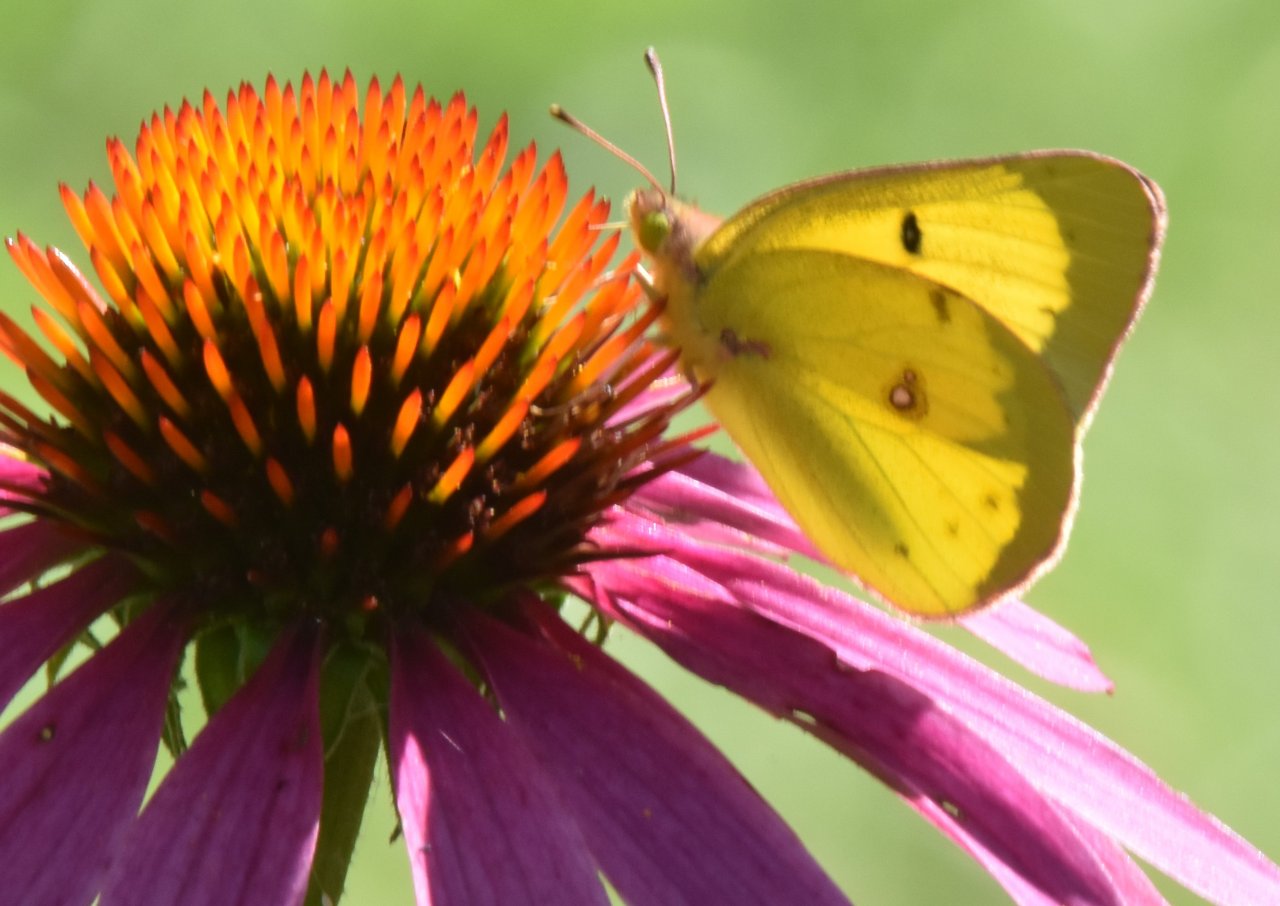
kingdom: Animalia
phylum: Arthropoda
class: Insecta
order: Lepidoptera
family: Pieridae
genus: Colias
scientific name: Colias philodice
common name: Clouded Sulphur
